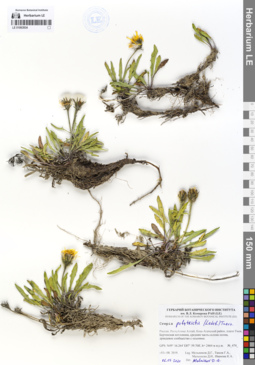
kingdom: Plantae
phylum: Tracheophyta
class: Magnoliopsida
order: Asterales
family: Asteraceae
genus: Crepis
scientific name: Crepis chrysantha
